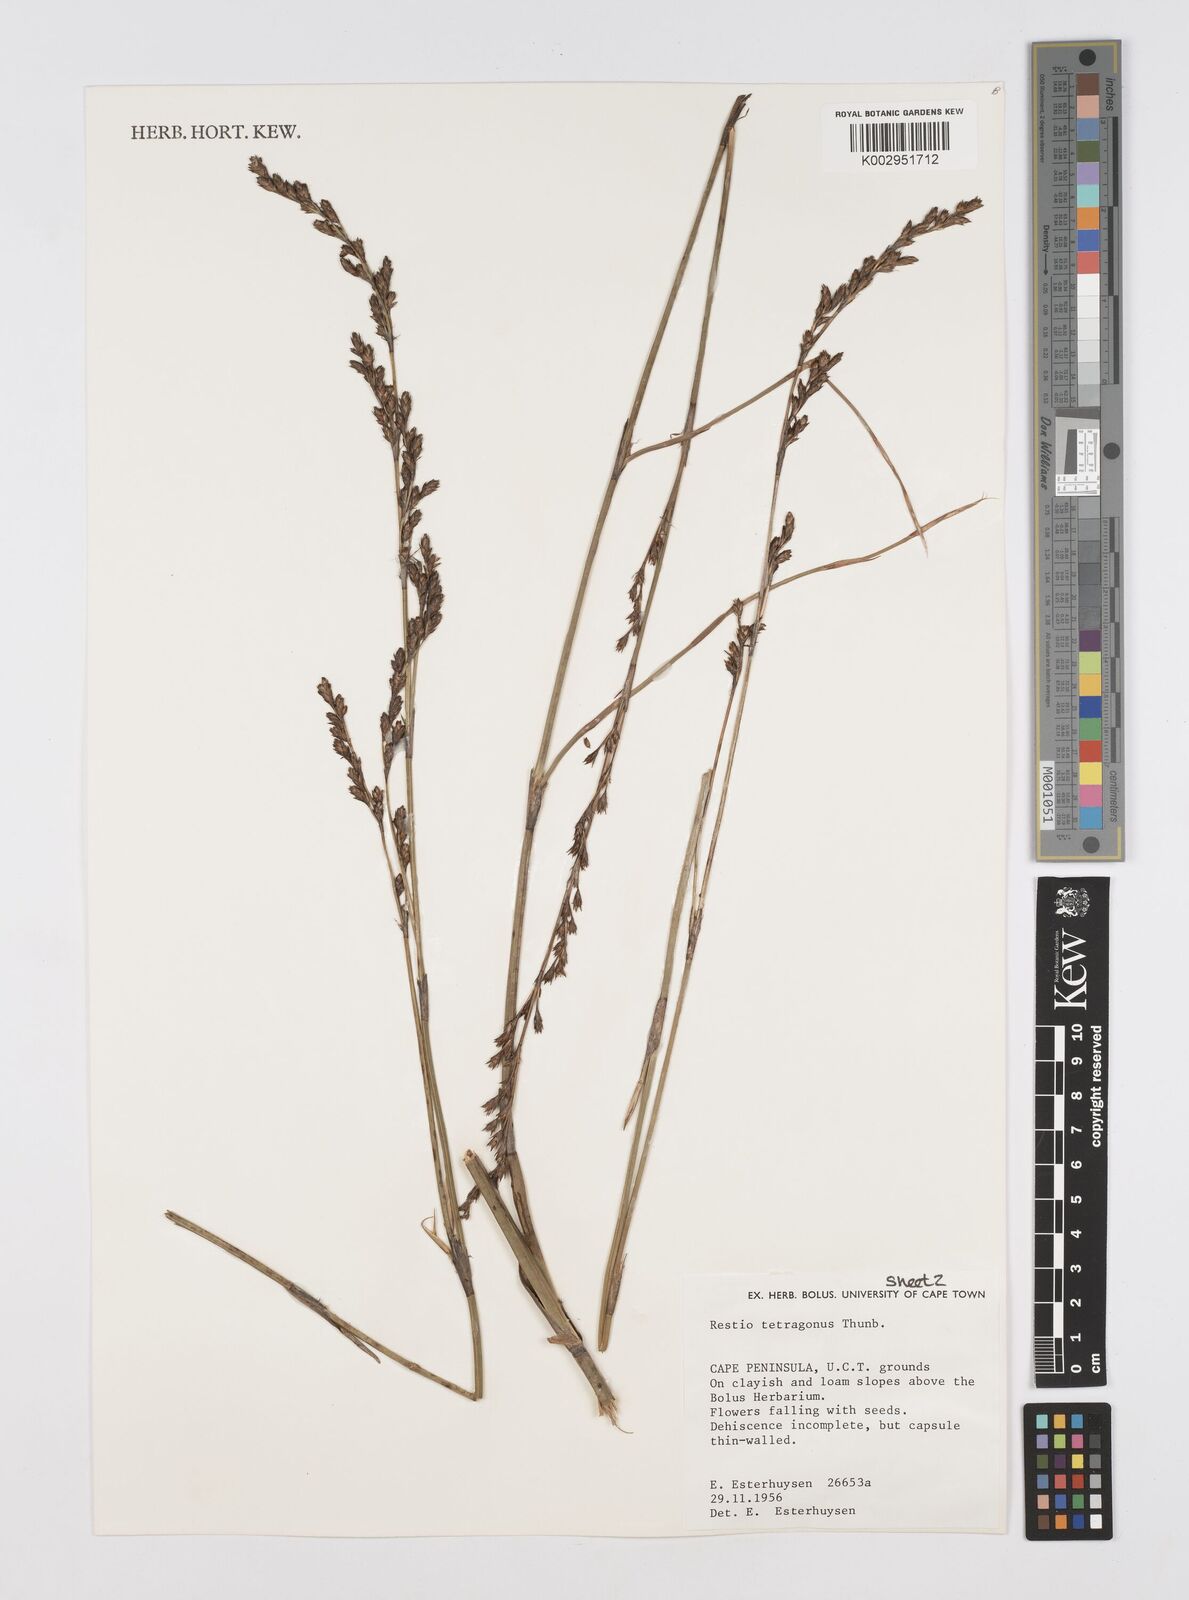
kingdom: Plantae
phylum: Tracheophyta
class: Liliopsida
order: Poales
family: Restionaceae
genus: Restio
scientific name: Restio tetragonus
